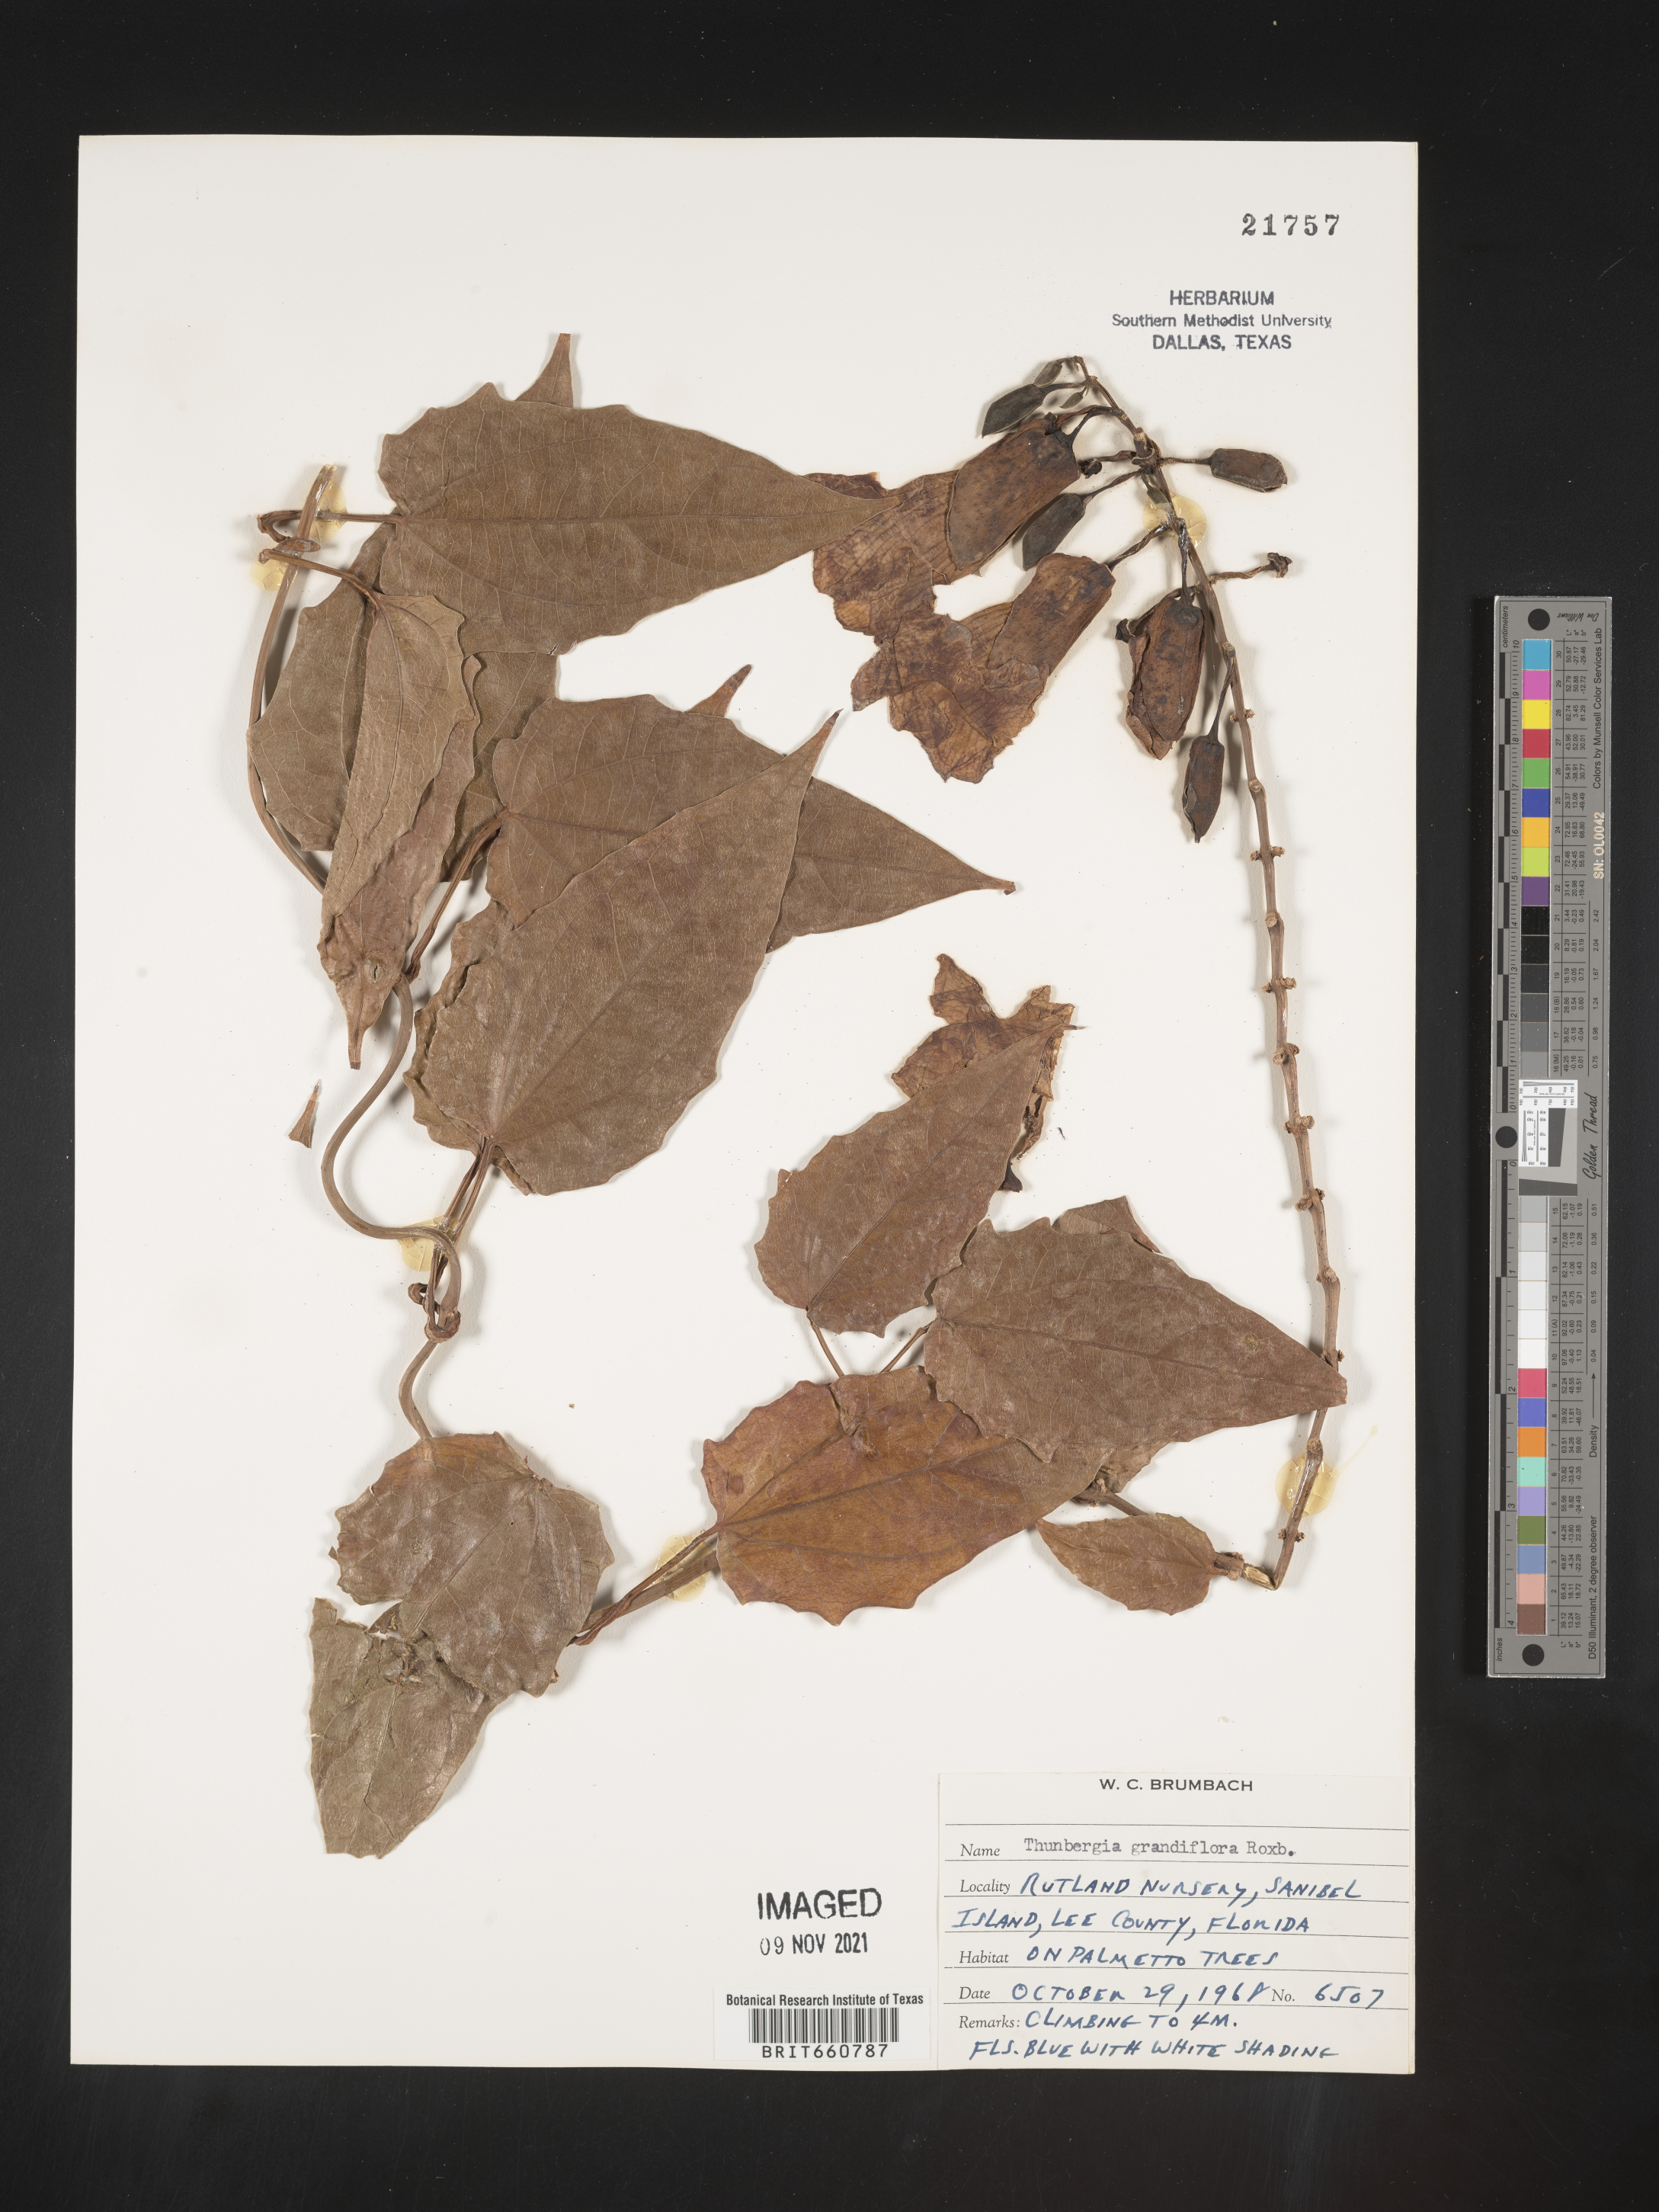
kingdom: Plantae
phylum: Tracheophyta
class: Magnoliopsida
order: Lamiales
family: Acanthaceae
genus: Thunbergia
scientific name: Thunbergia
